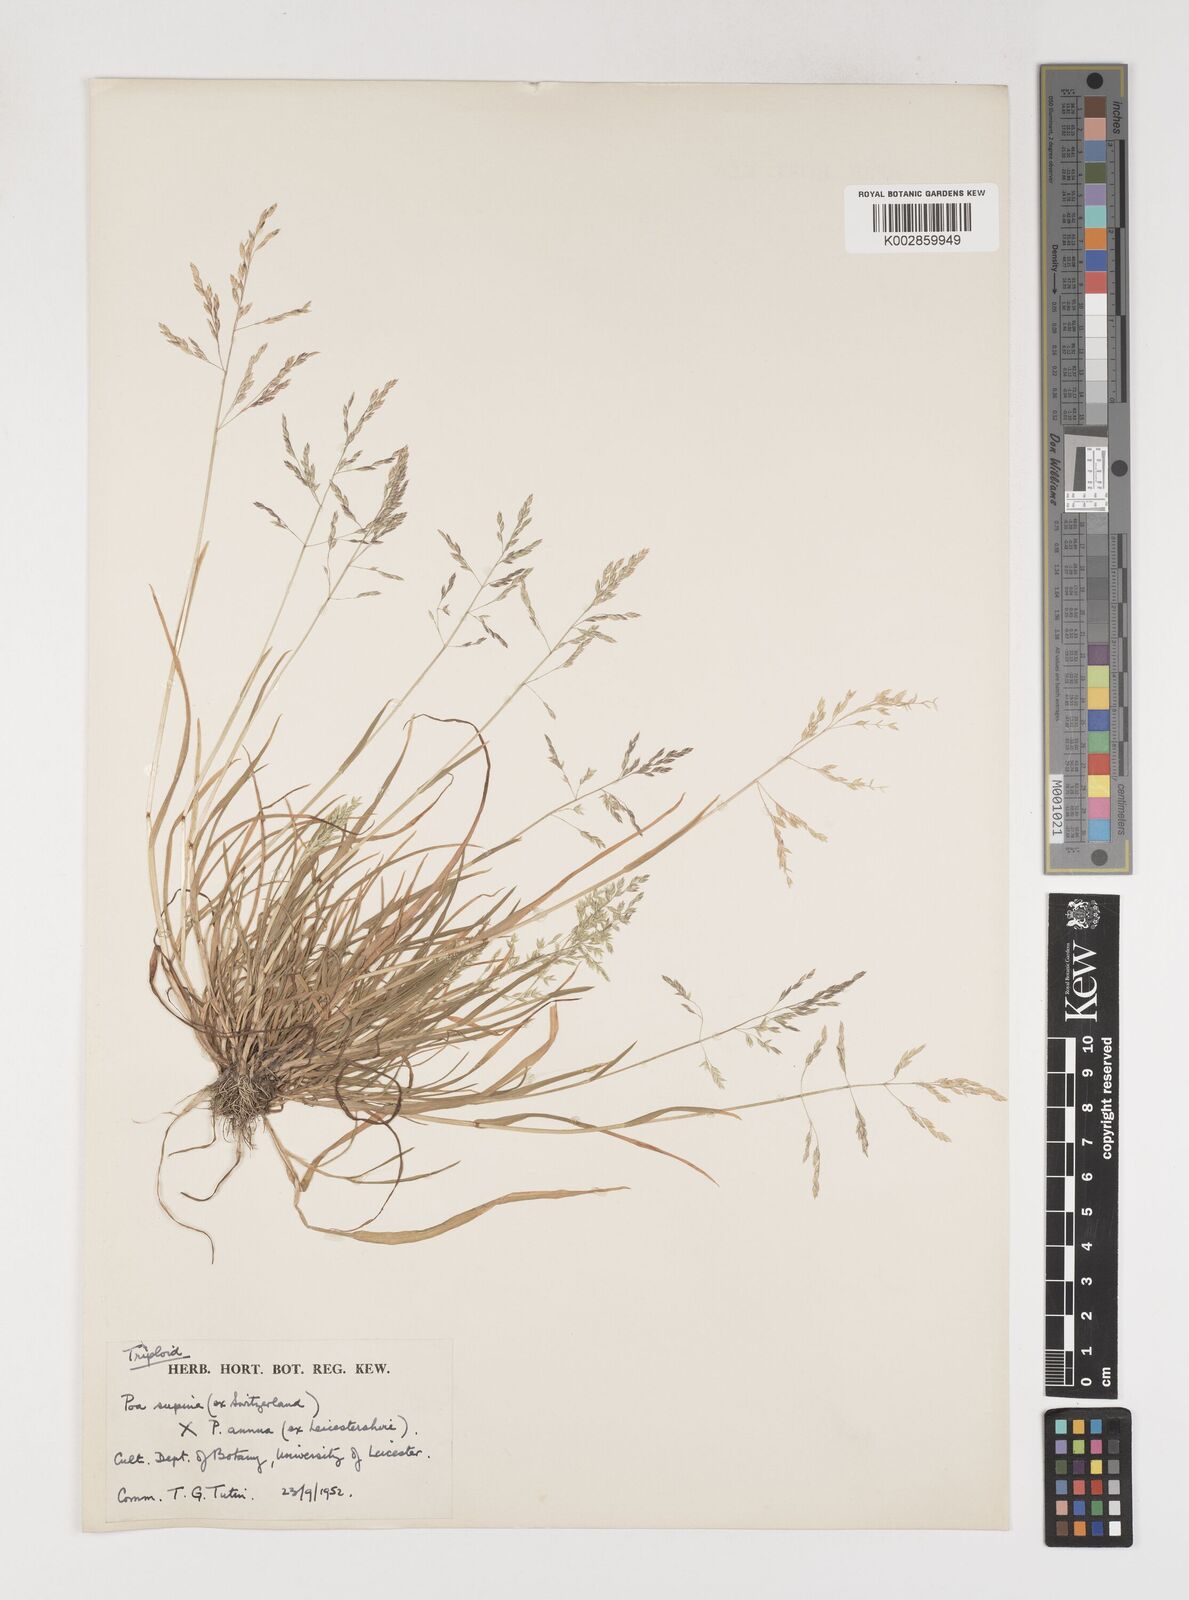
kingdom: Plantae
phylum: Tracheophyta
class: Liliopsida
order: Poales
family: Poaceae
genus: Poa
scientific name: Poa
